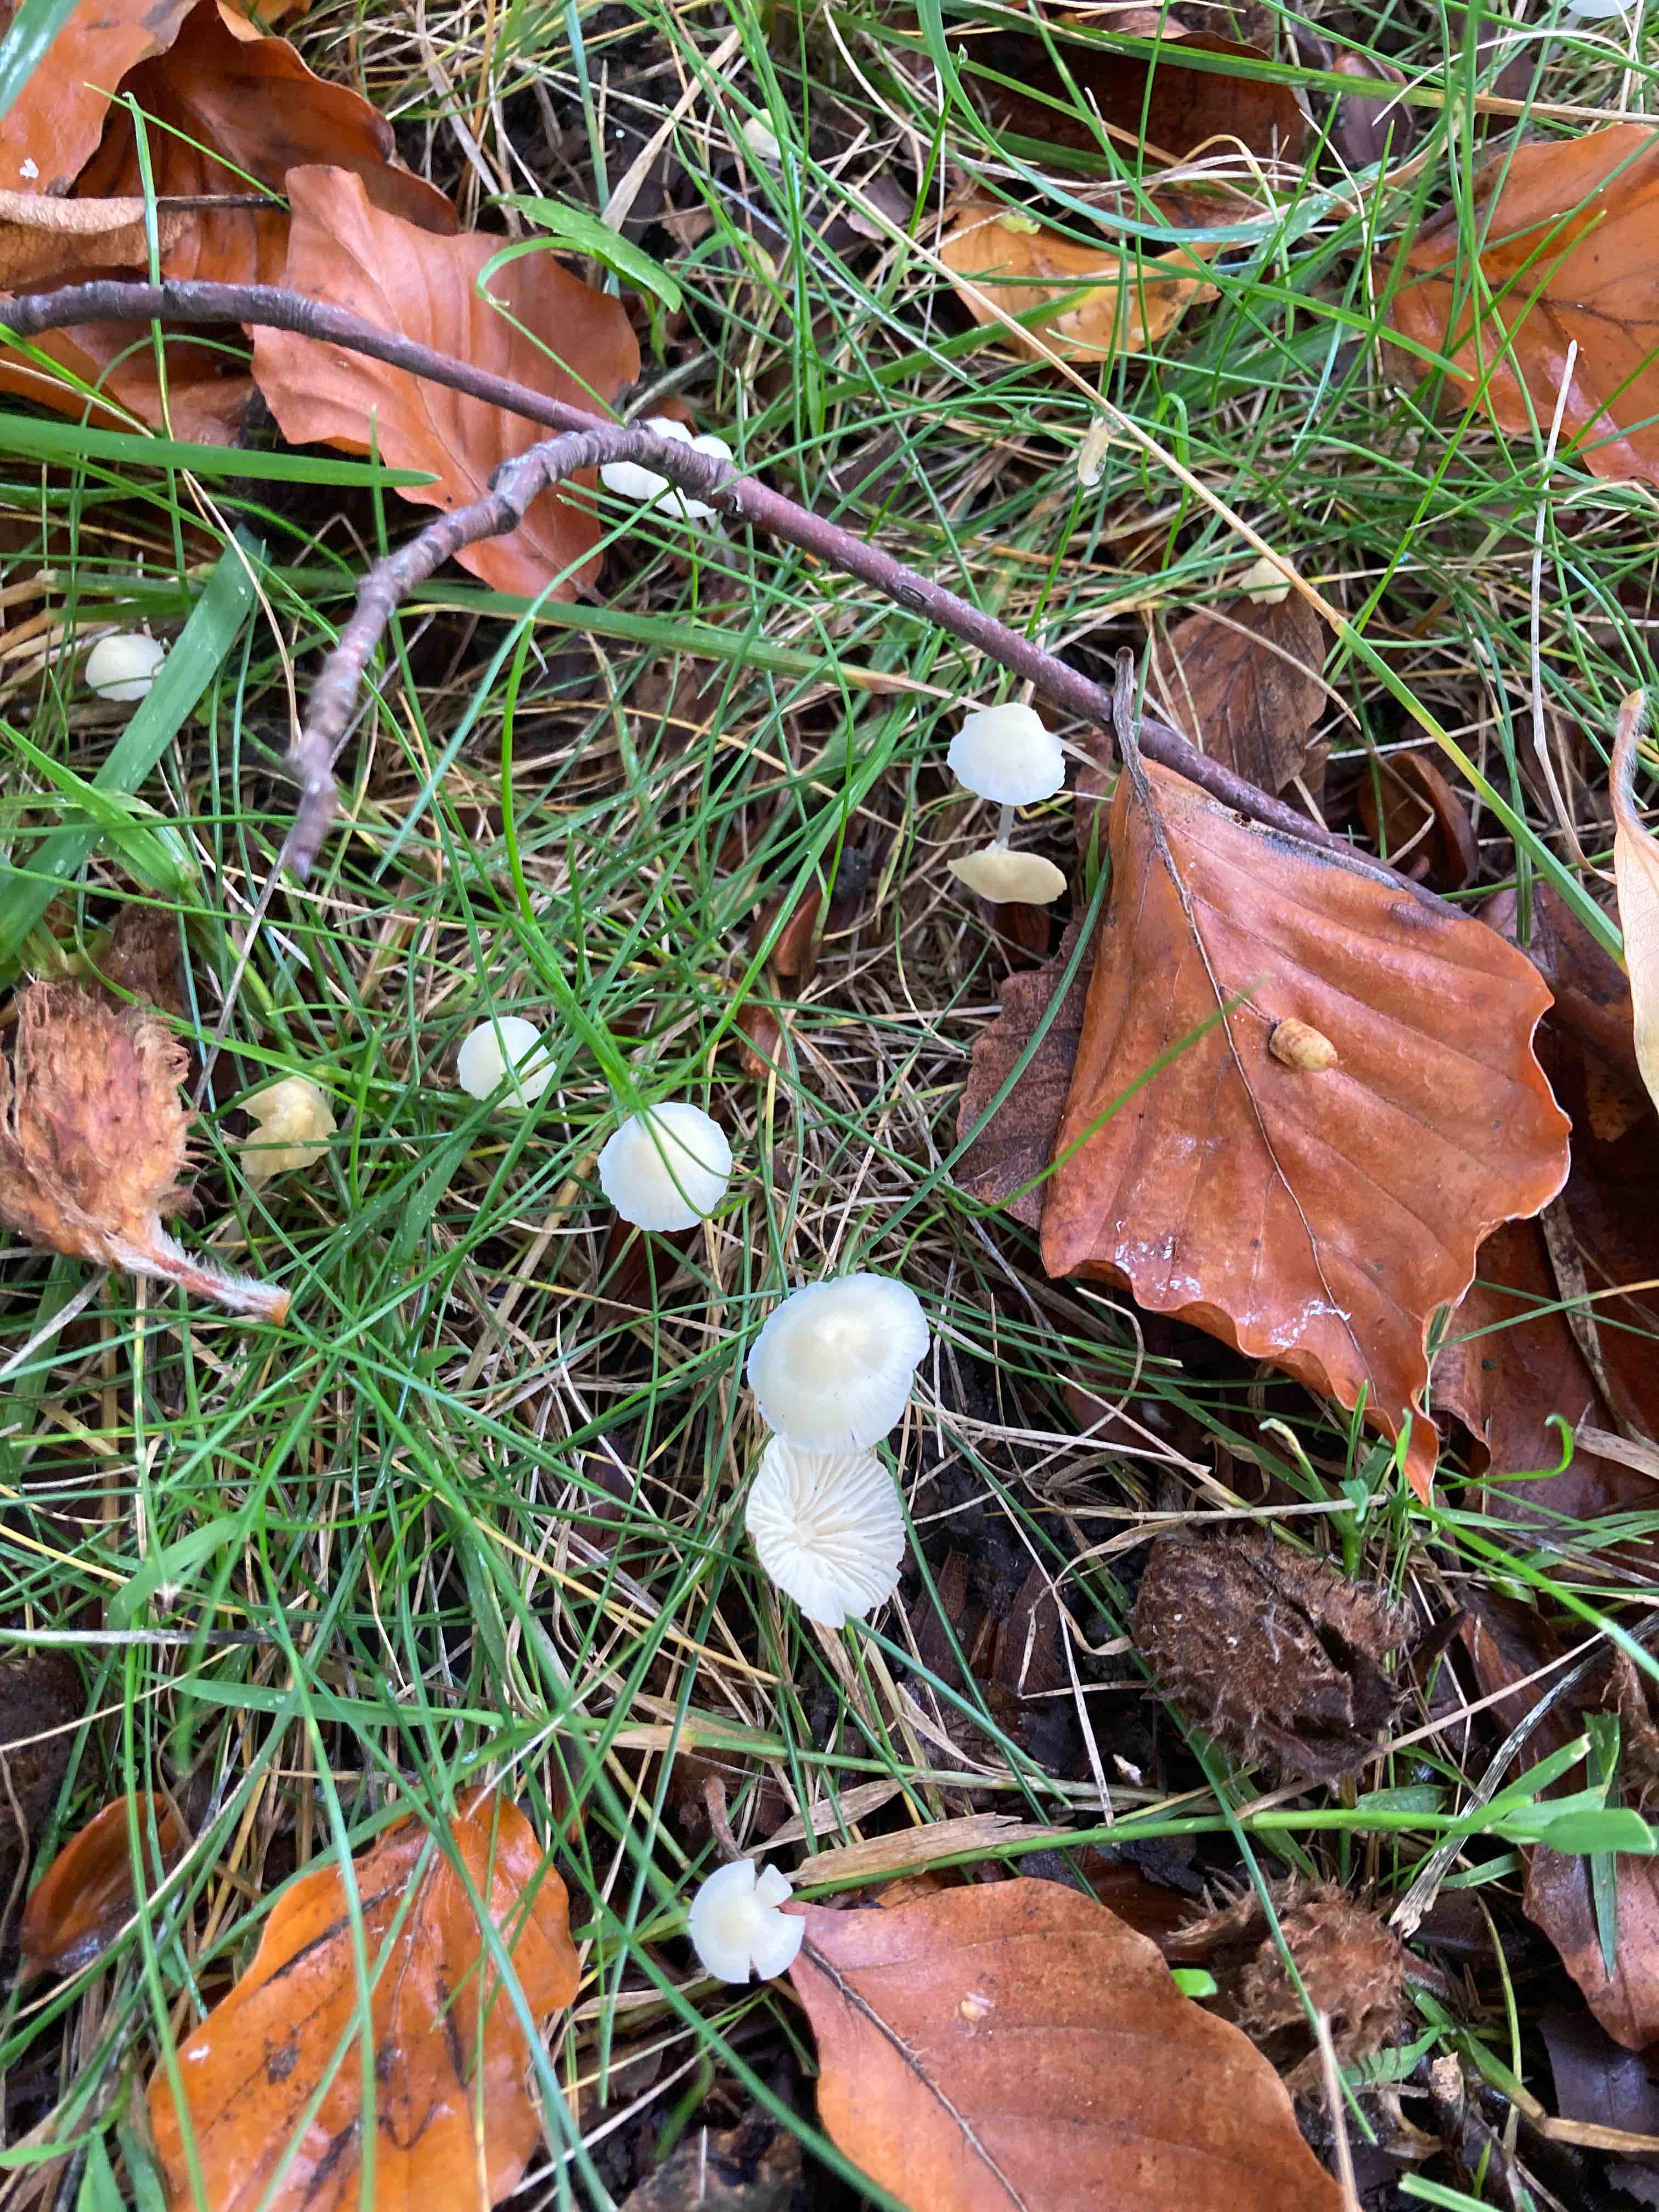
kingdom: Fungi
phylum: Basidiomycota
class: Agaricomycetes
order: Agaricales
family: Mycenaceae
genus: Atheniella
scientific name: Atheniella flavoalba
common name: gulhvid huesvamp
